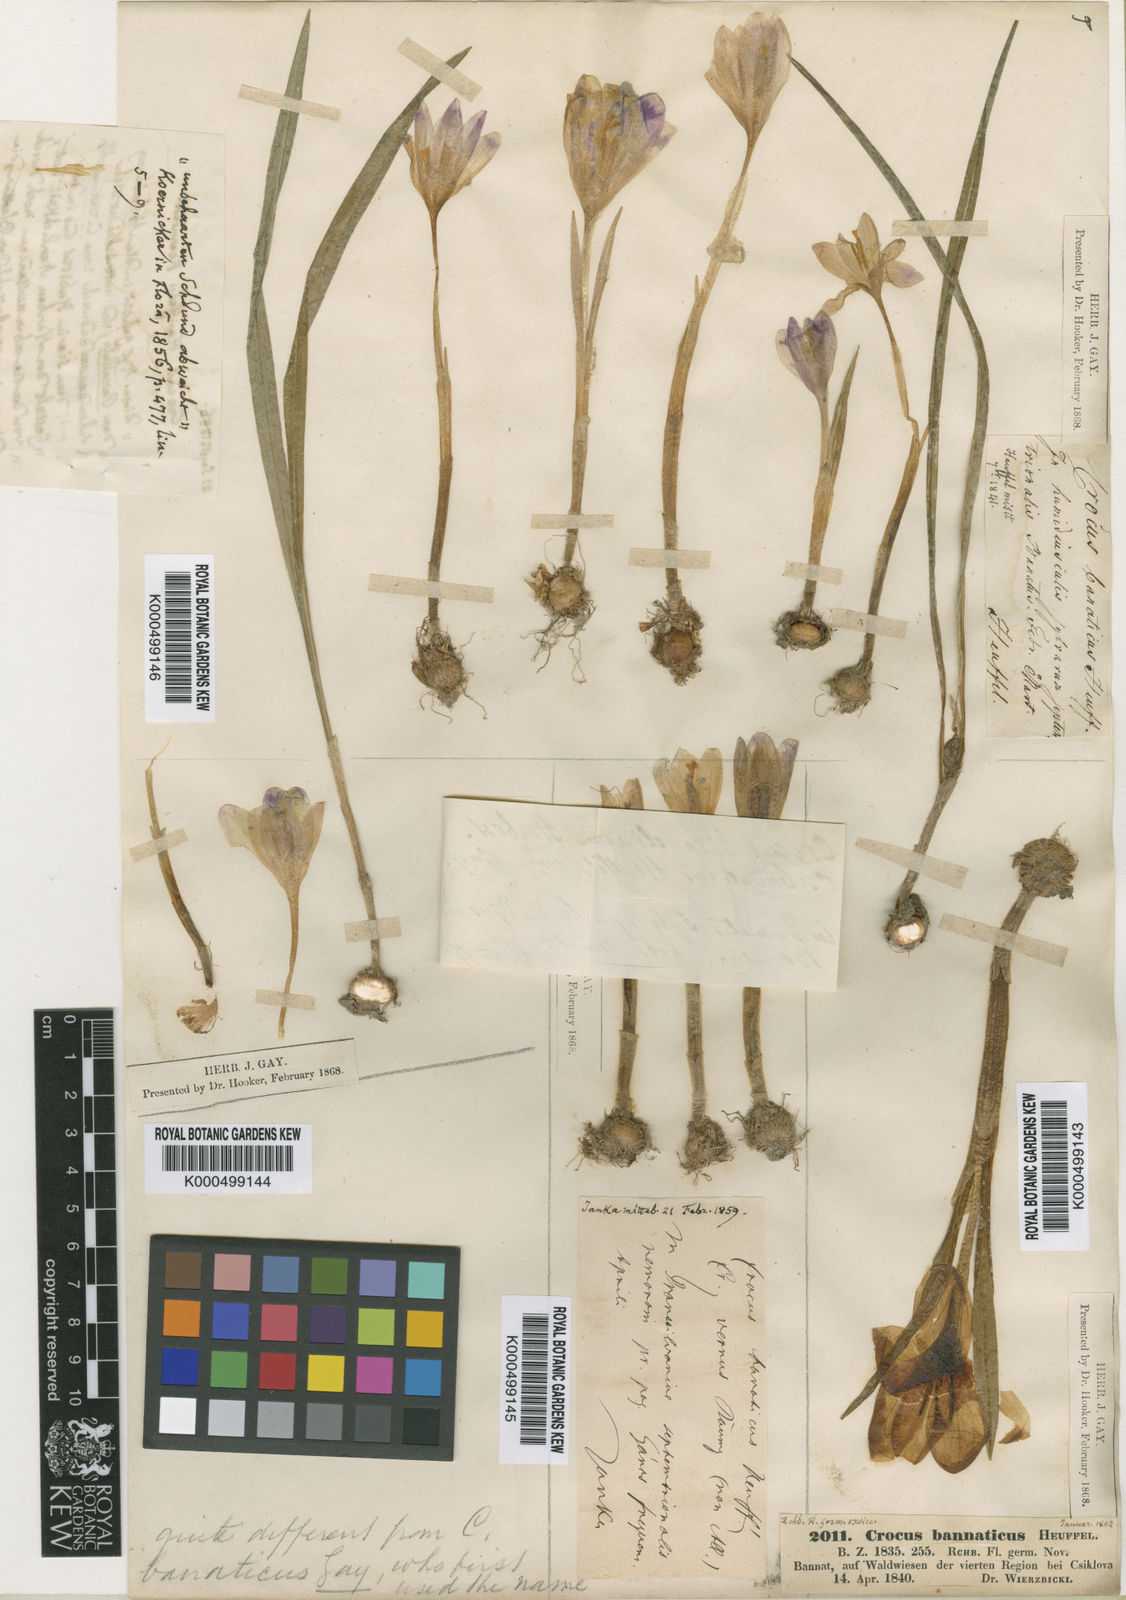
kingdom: Plantae
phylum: Tracheophyta
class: Liliopsida
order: Asparagales
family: Iridaceae
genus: Crocus
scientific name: Crocus
